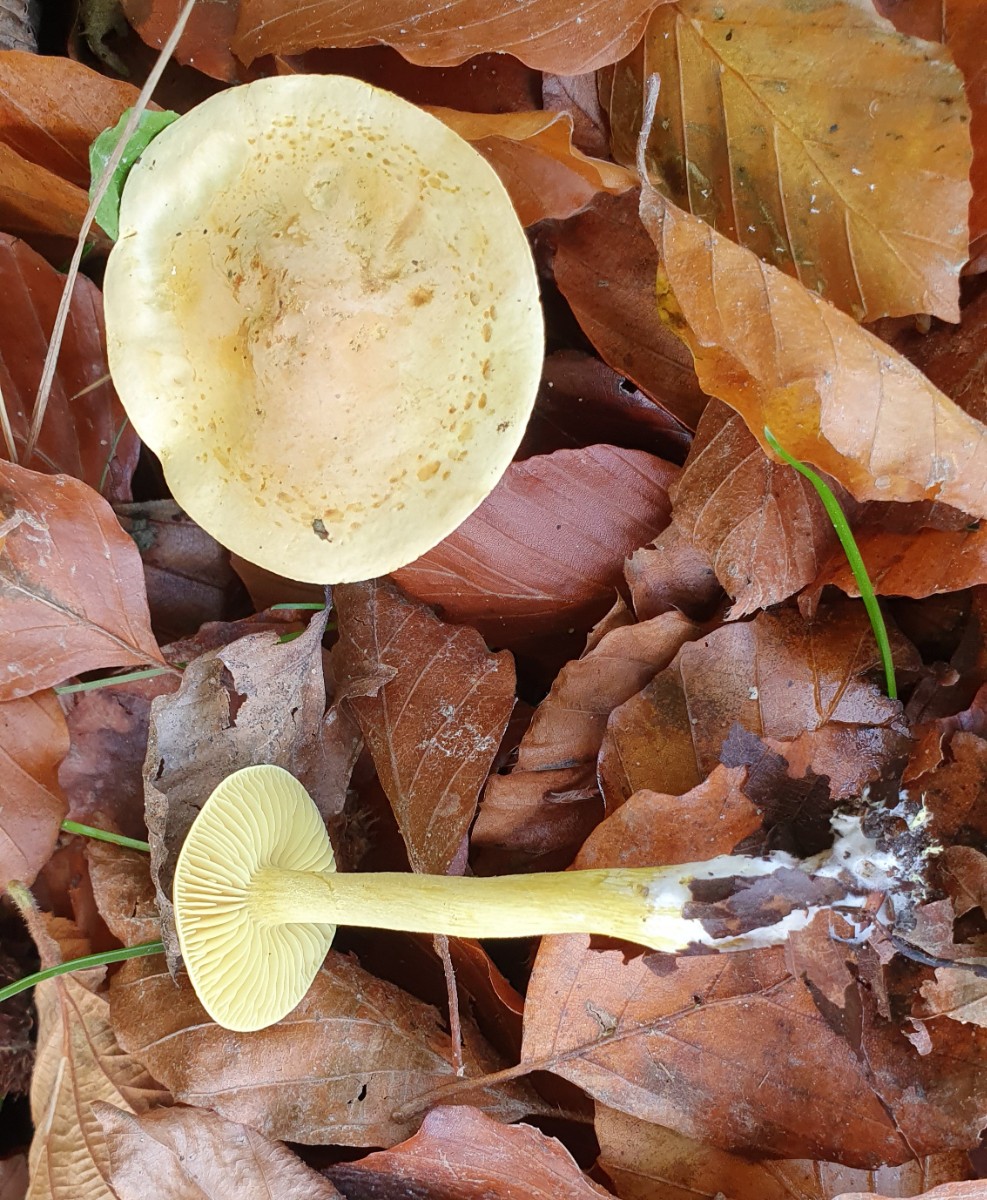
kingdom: Fungi
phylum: Basidiomycota
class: Agaricomycetes
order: Agaricales
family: Tricholomataceae
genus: Tricholoma
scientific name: Tricholoma sulphureum
